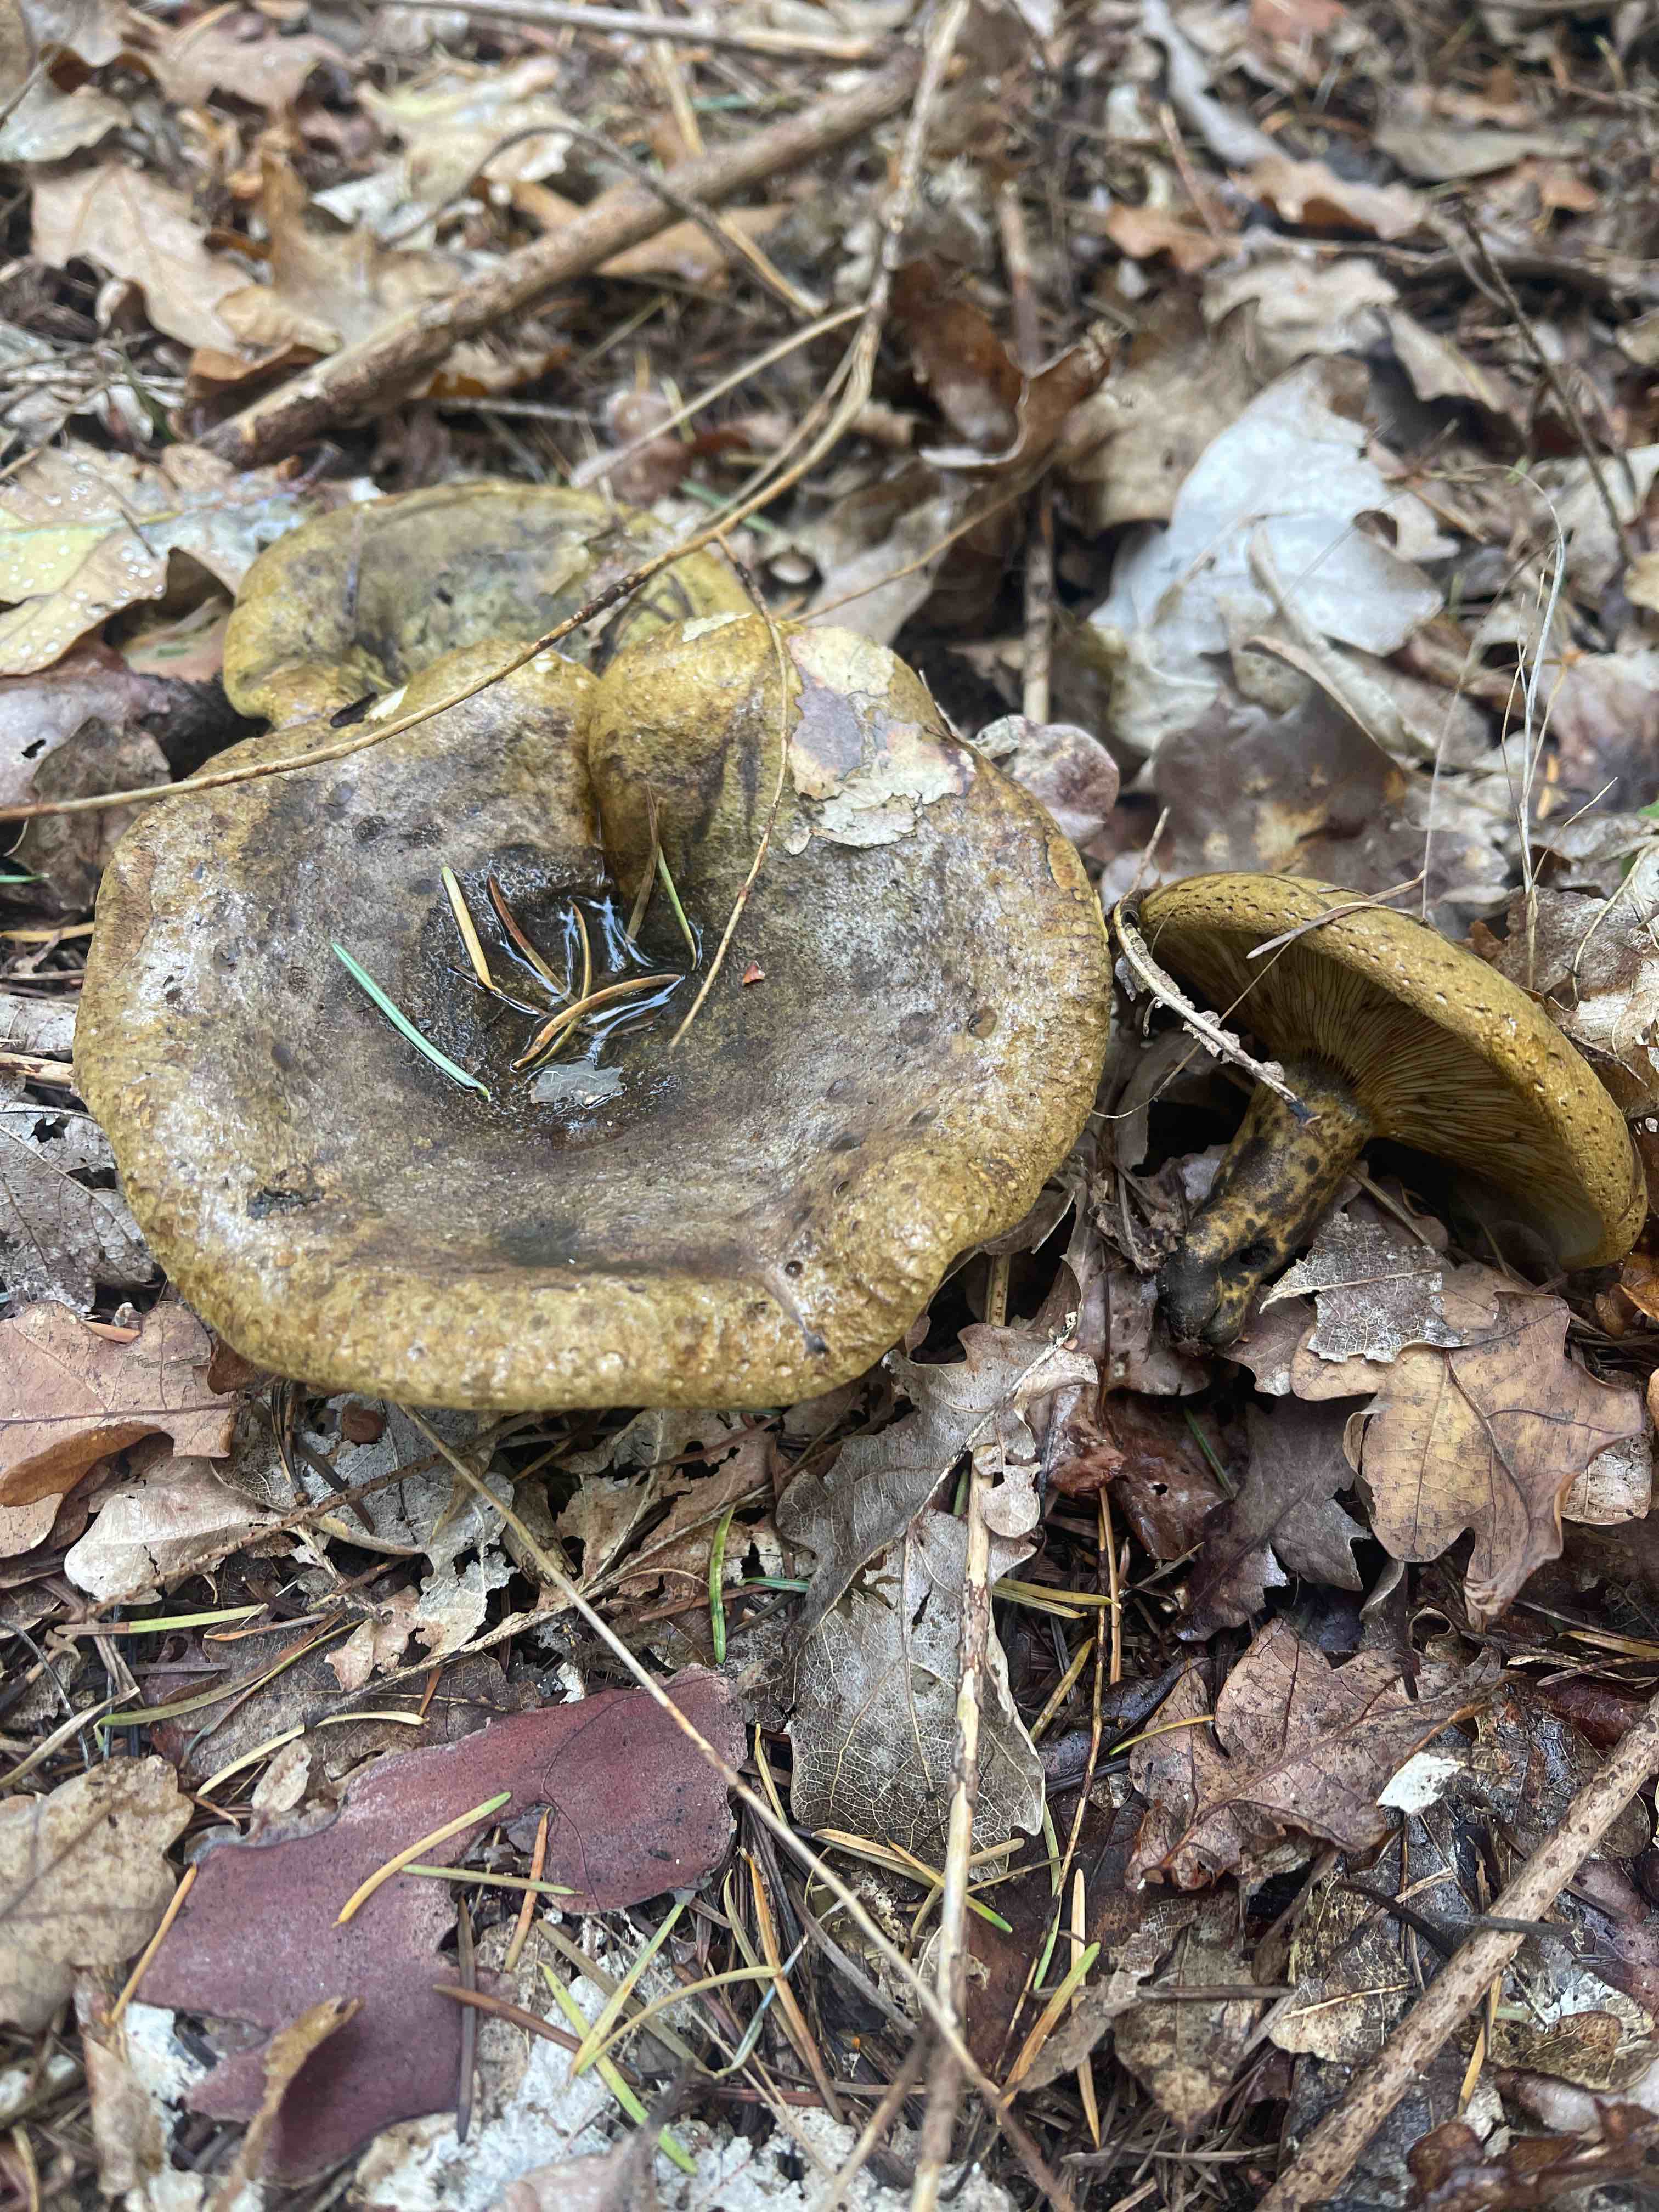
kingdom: Fungi
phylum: Basidiomycota
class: Agaricomycetes
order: Russulales
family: Russulaceae
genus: Lactarius
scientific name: Lactarius necator
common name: manddraber-mælkehat
